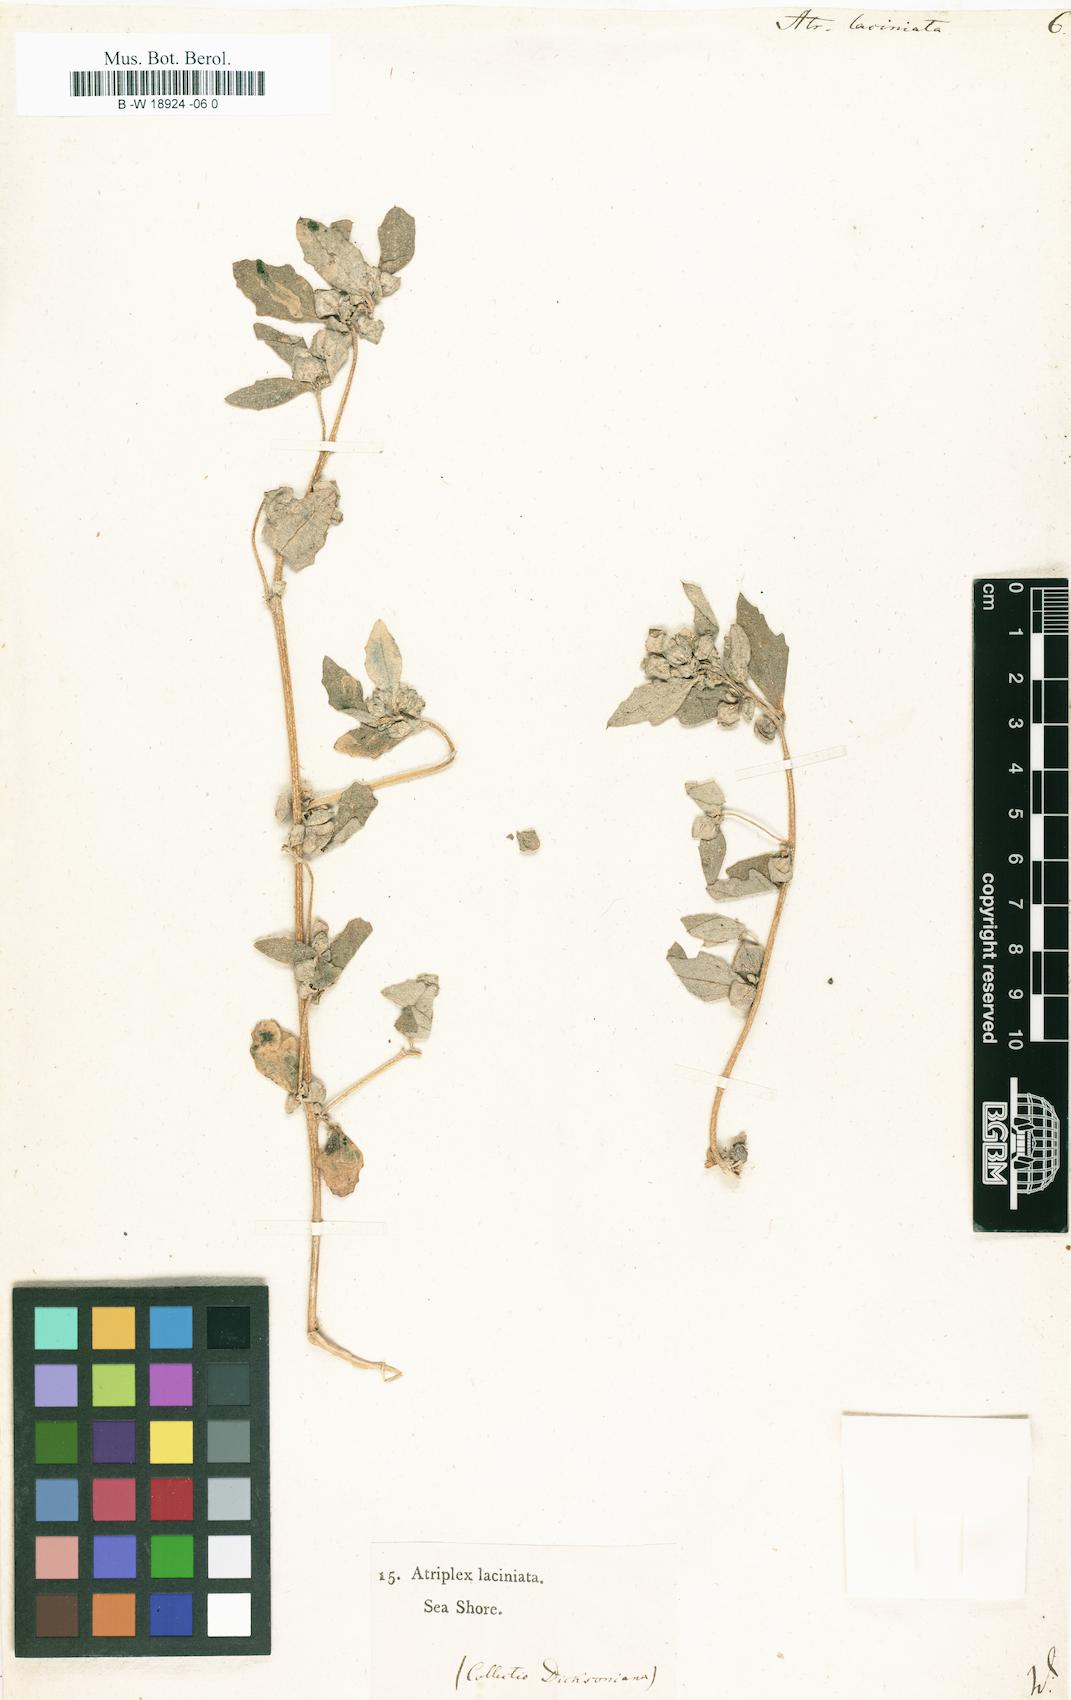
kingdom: Plantae
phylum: Tracheophyta
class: Magnoliopsida
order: Caryophyllales
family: Amaranthaceae
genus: Atriplex
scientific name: Atriplex laciniata
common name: Frosted orache
